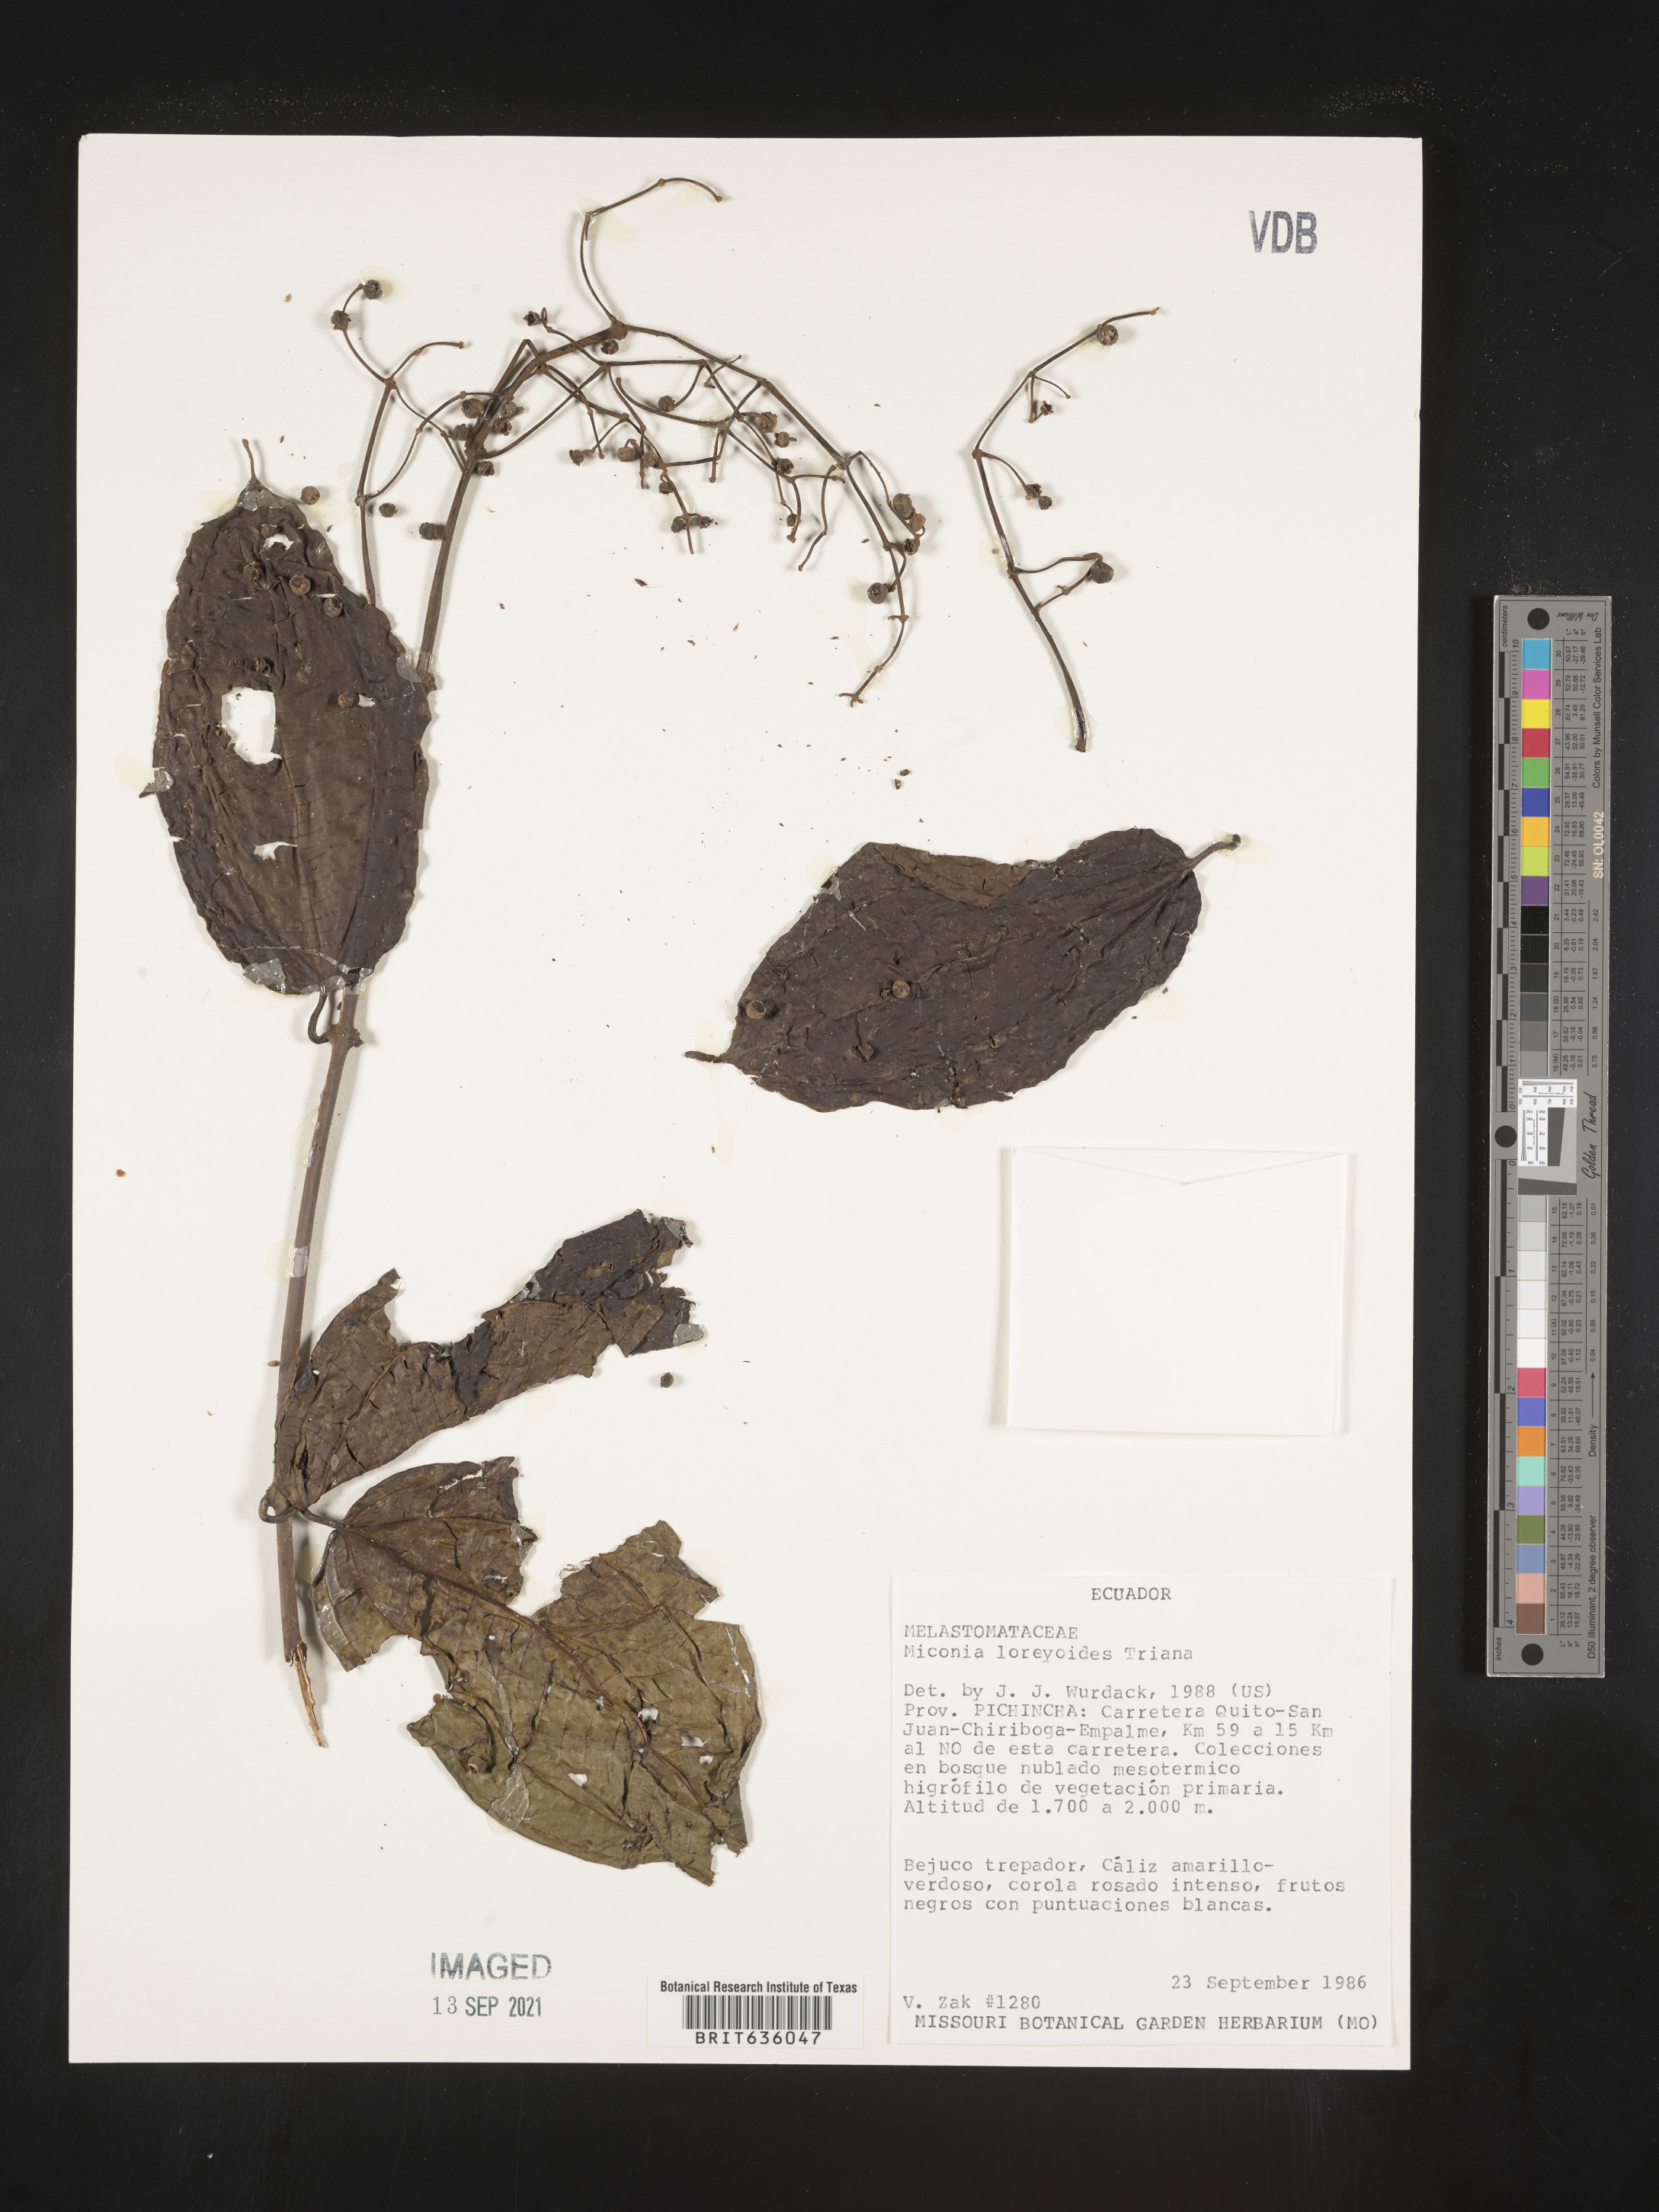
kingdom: Plantae
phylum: Tracheophyta
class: Magnoliopsida
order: Myrtales
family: Melastomataceae
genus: Miconia
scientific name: Miconia
